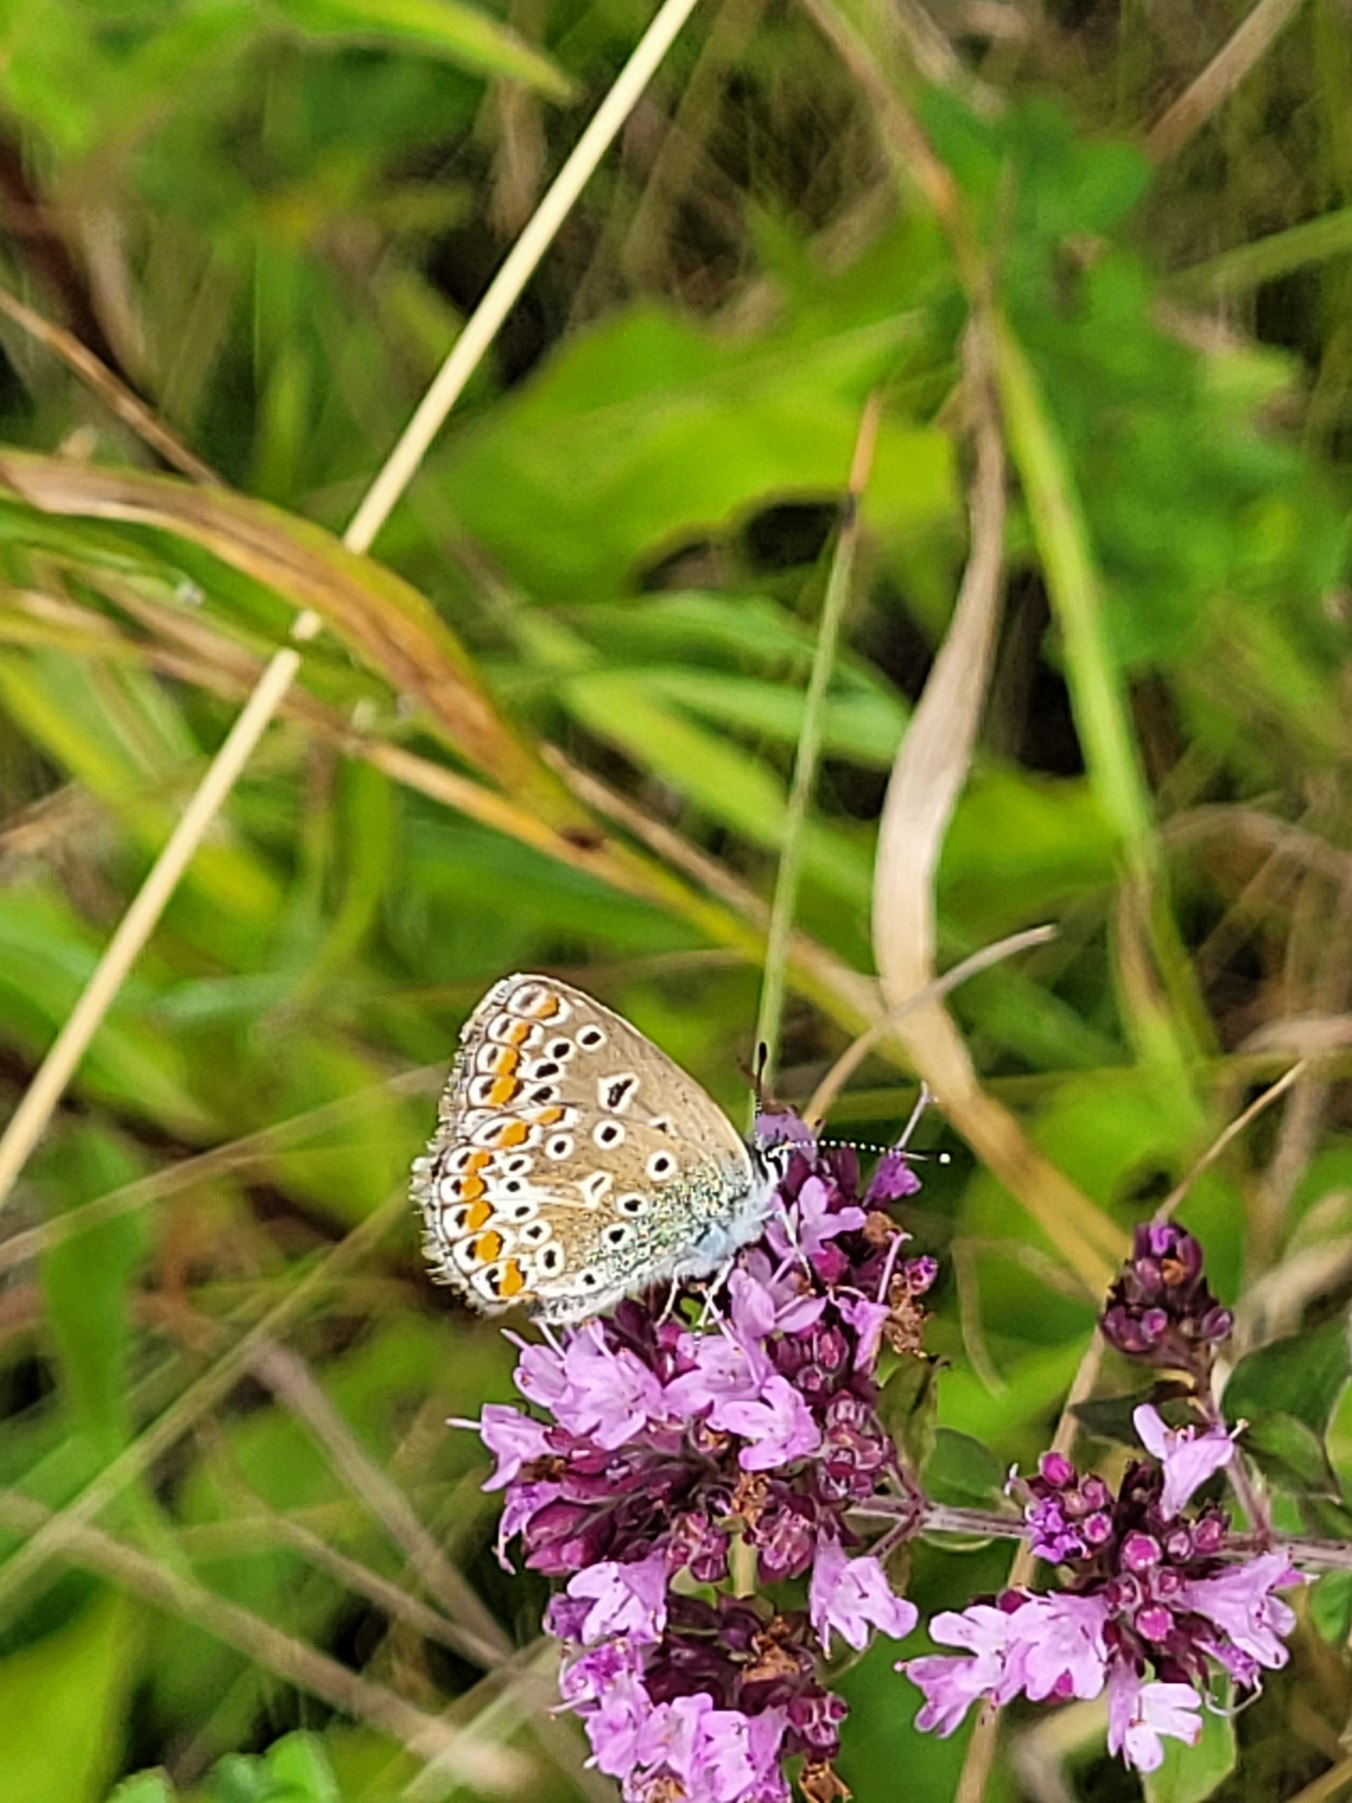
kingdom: Animalia
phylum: Arthropoda
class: Insecta
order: Lepidoptera
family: Lycaenidae
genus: Polyommatus
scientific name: Polyommatus icarus
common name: Almindelig blåfugl
